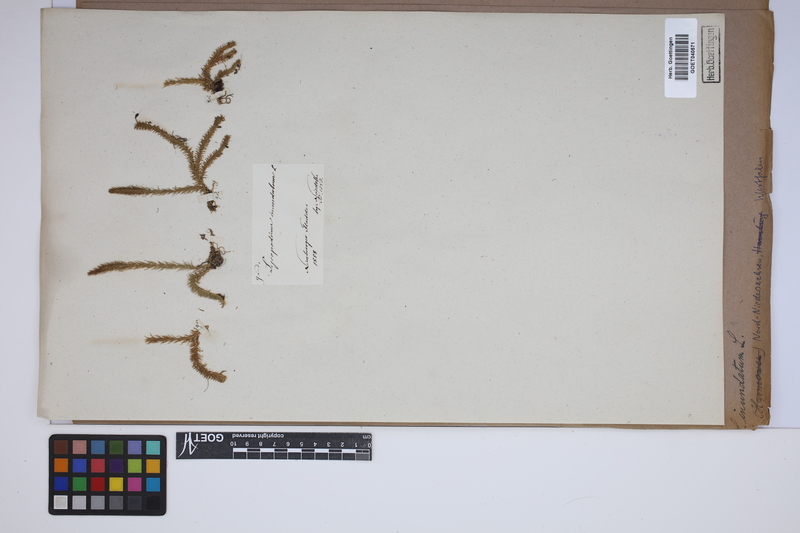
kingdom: Plantae
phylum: Tracheophyta
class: Lycopodiopsida
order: Lycopodiales
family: Lycopodiaceae
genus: Lycopodiella
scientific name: Lycopodiella inundata
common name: Marsh clubmoss
